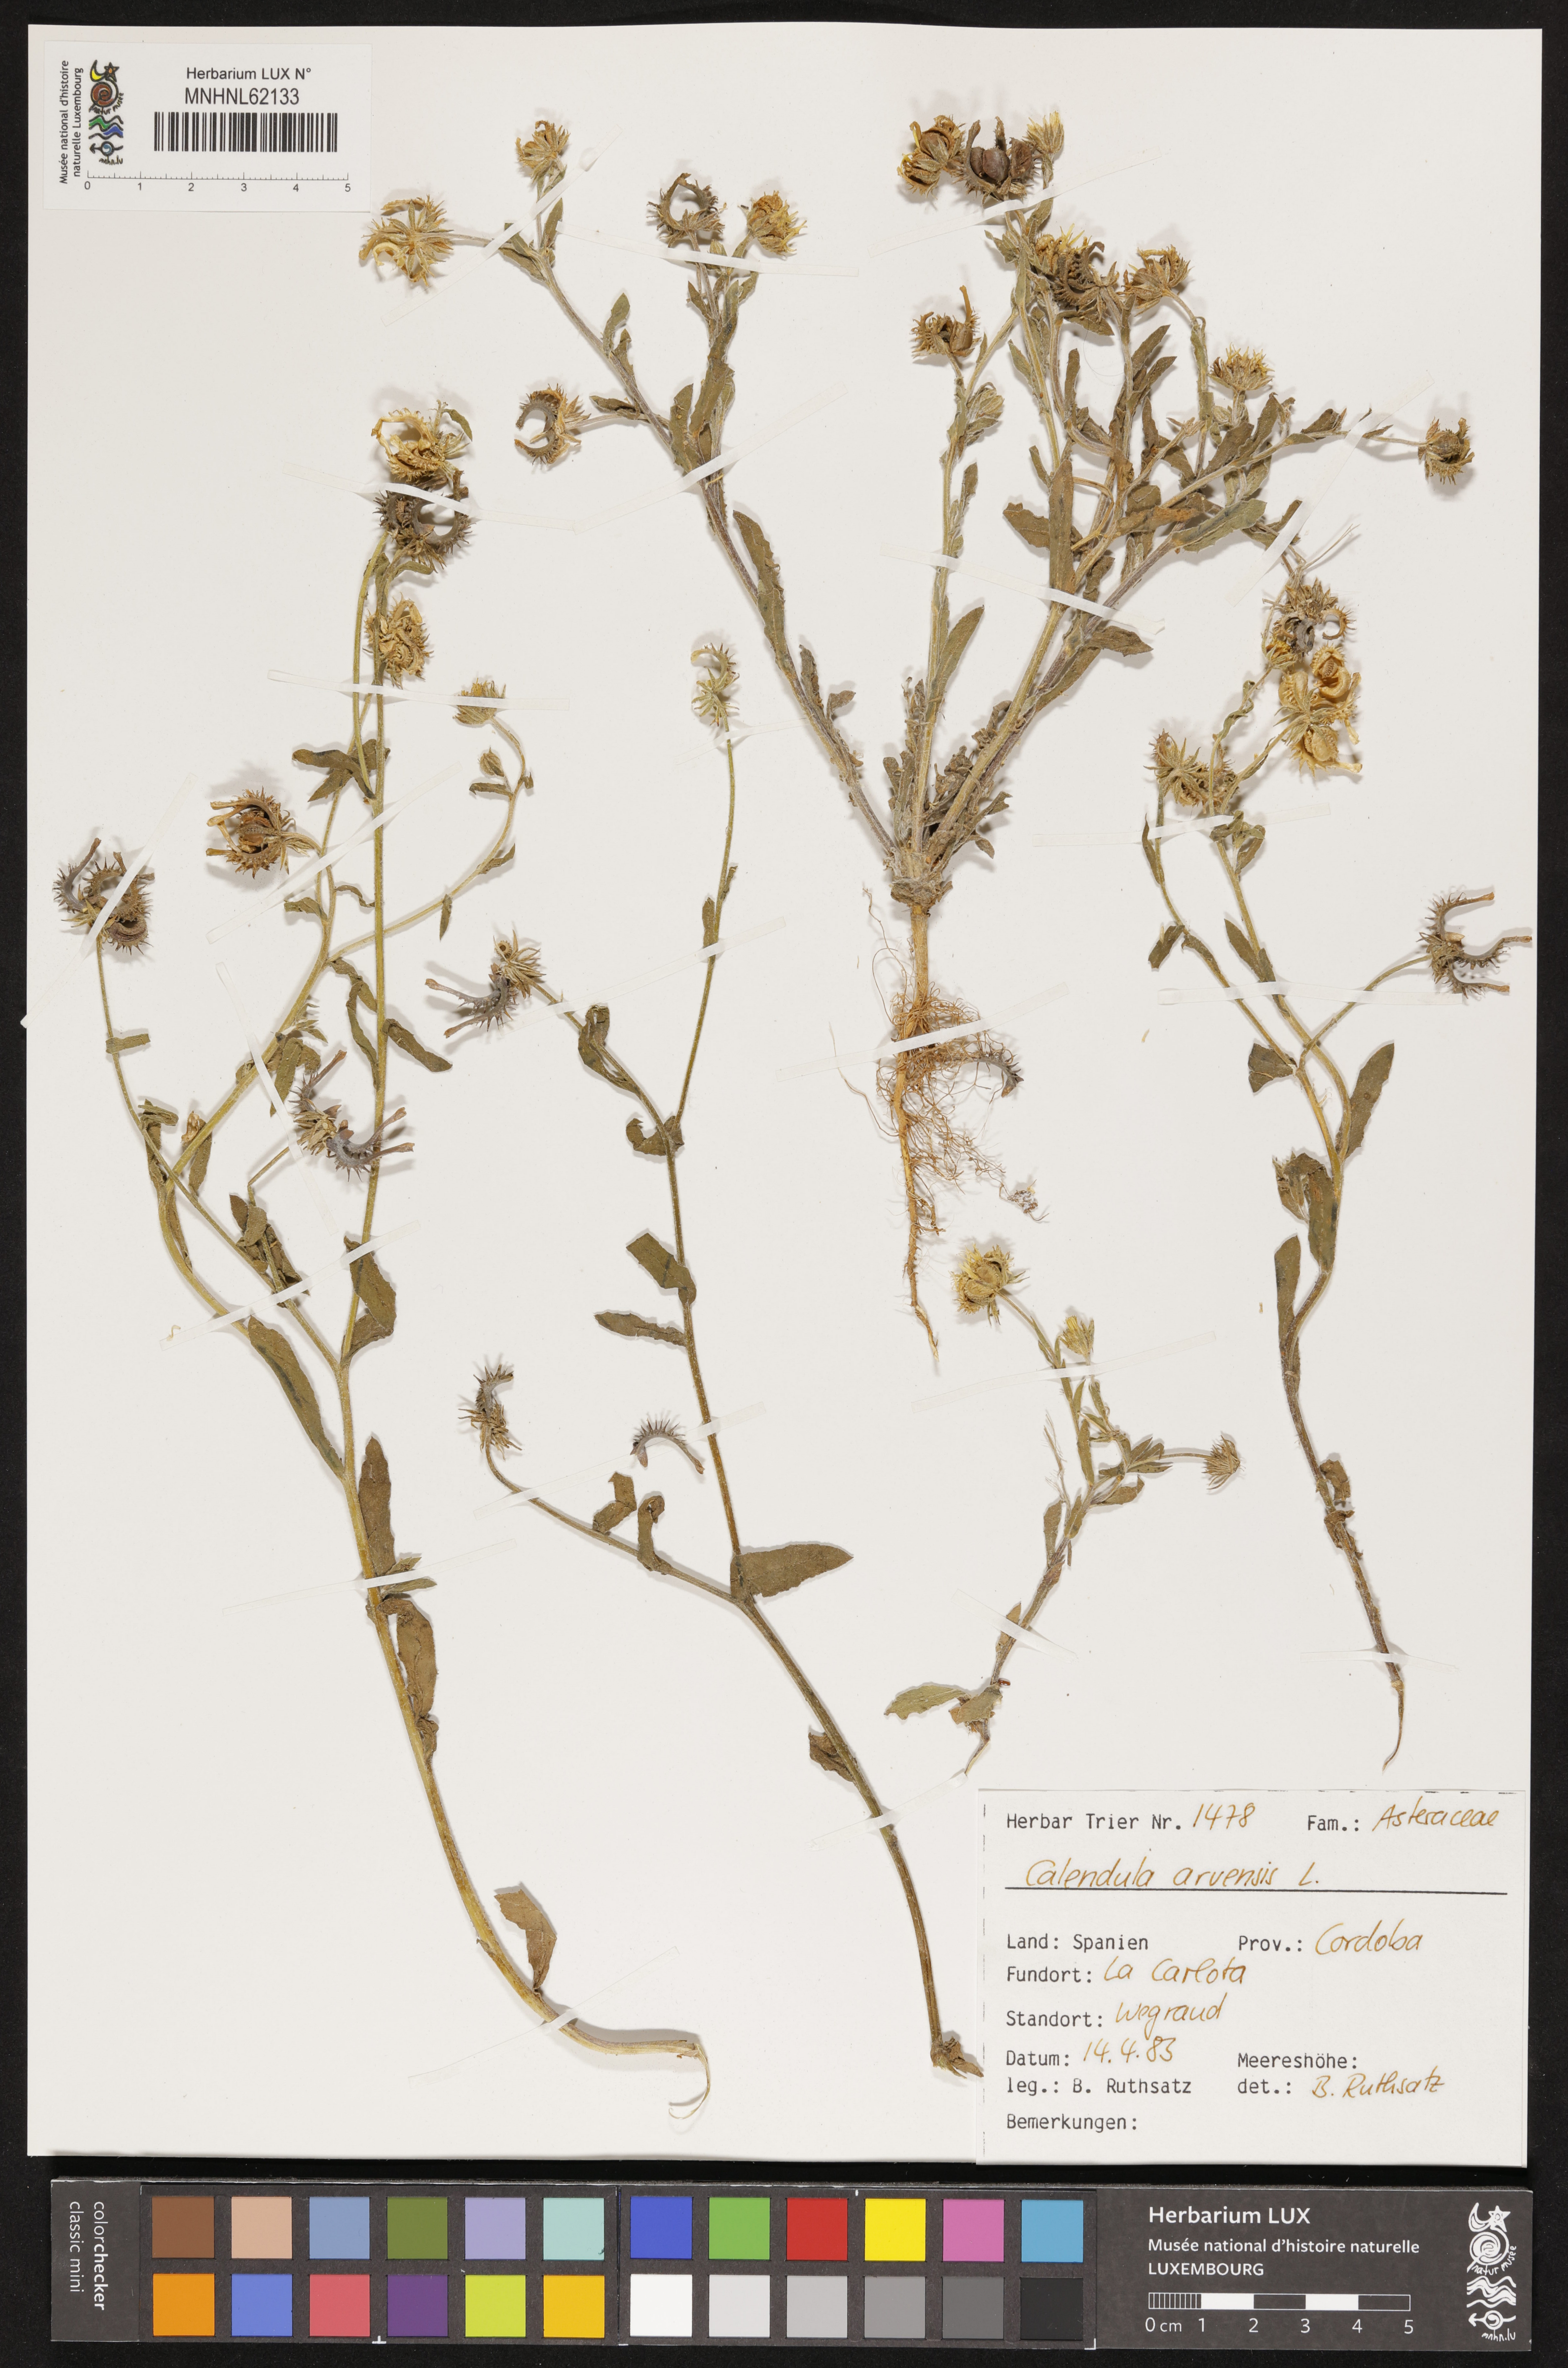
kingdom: Plantae
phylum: Tracheophyta
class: Magnoliopsida
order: Asterales
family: Asteraceae
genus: Calendula
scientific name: Calendula arvensis
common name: Field marigold
